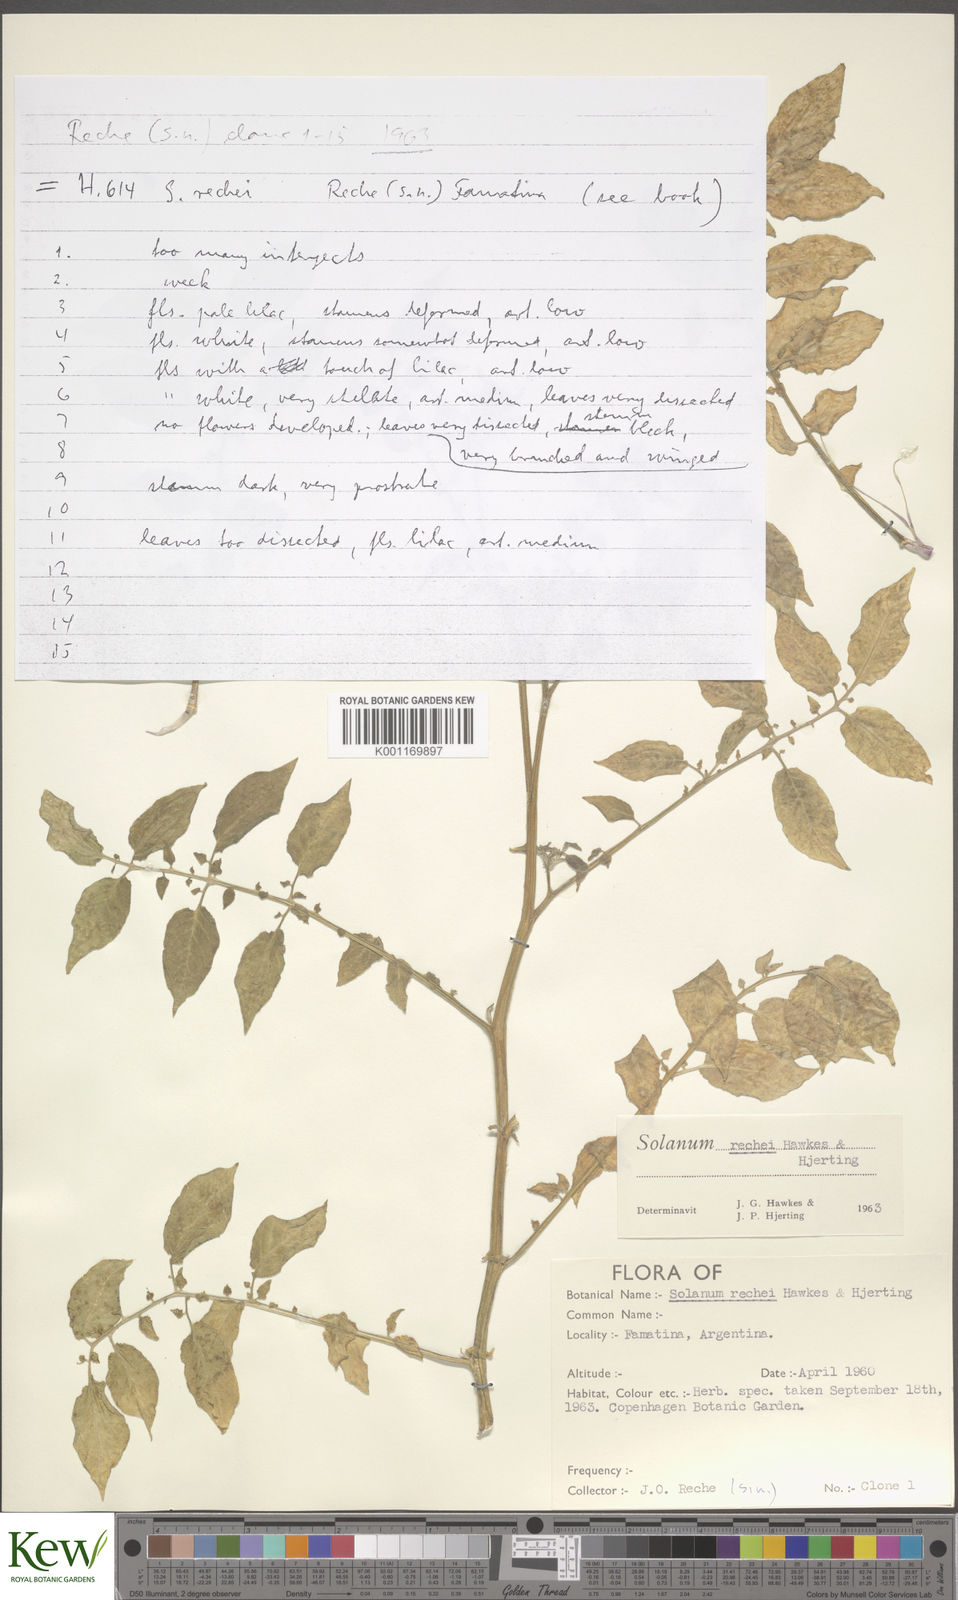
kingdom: Plantae
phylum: Tracheophyta
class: Magnoliopsida
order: Solanales
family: Solanaceae
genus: Solanum
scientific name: Solanum rechei
